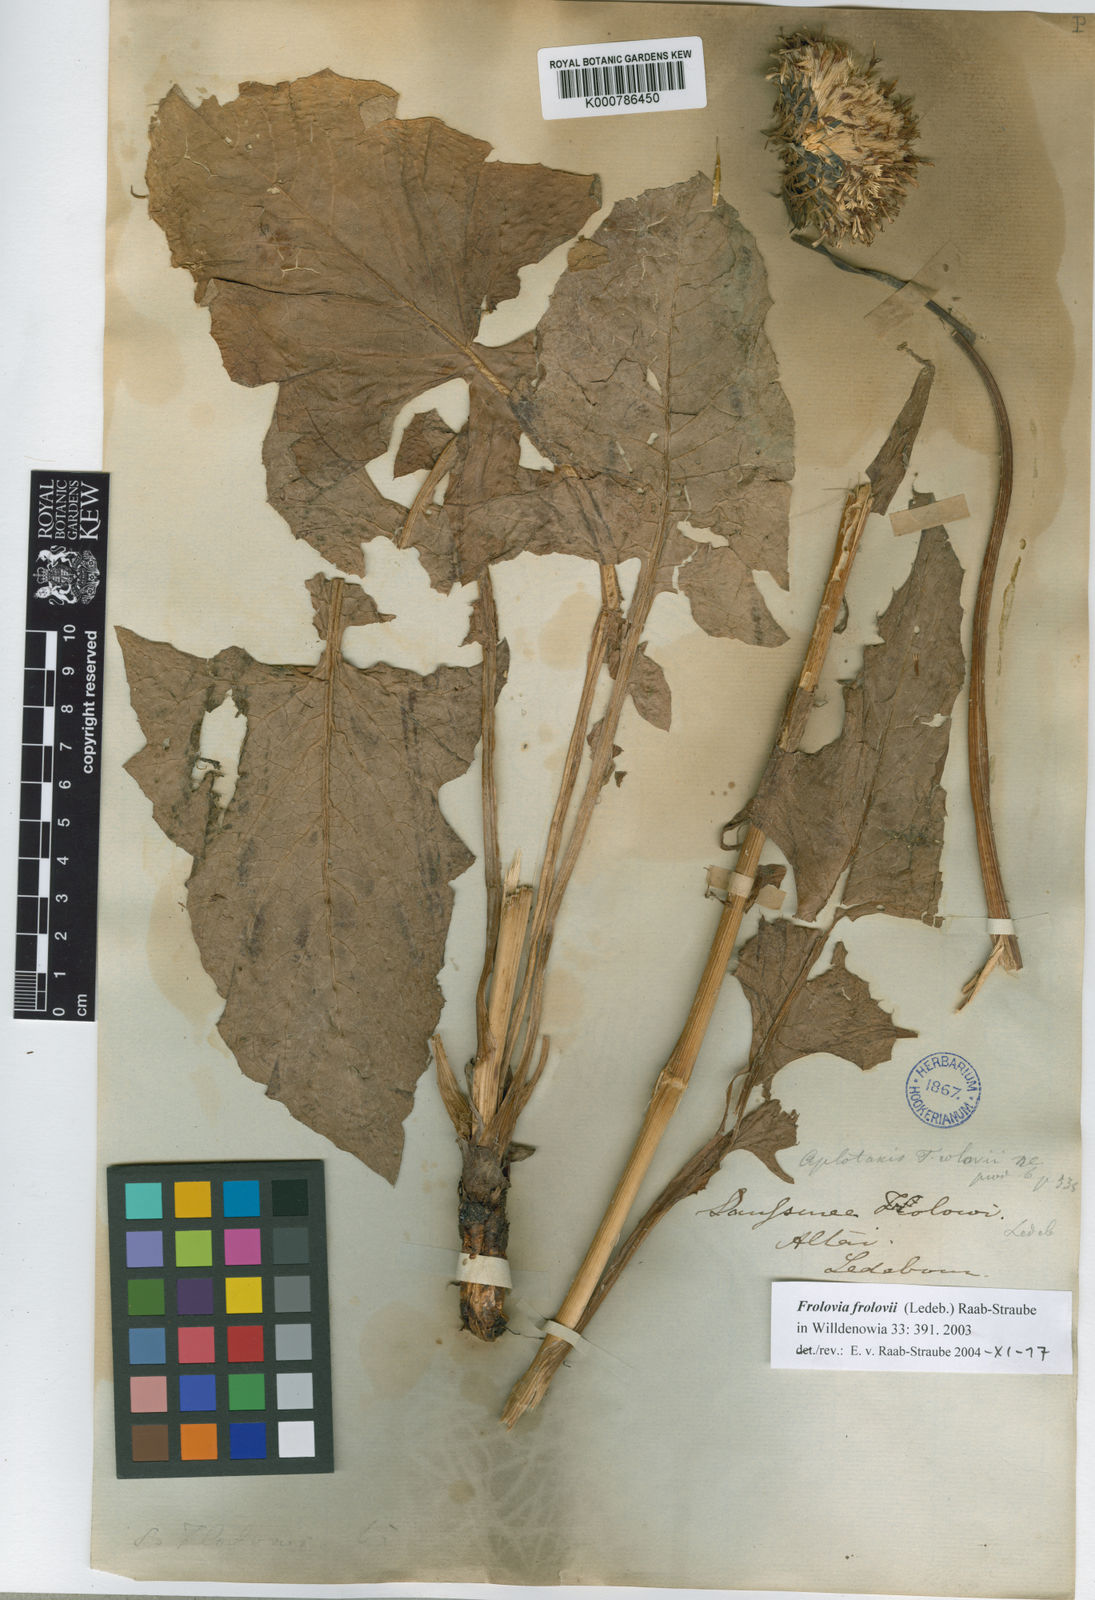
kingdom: Plantae
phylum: Tracheophyta
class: Magnoliopsida
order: Asterales
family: Asteraceae
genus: Saussurea
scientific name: Saussurea
